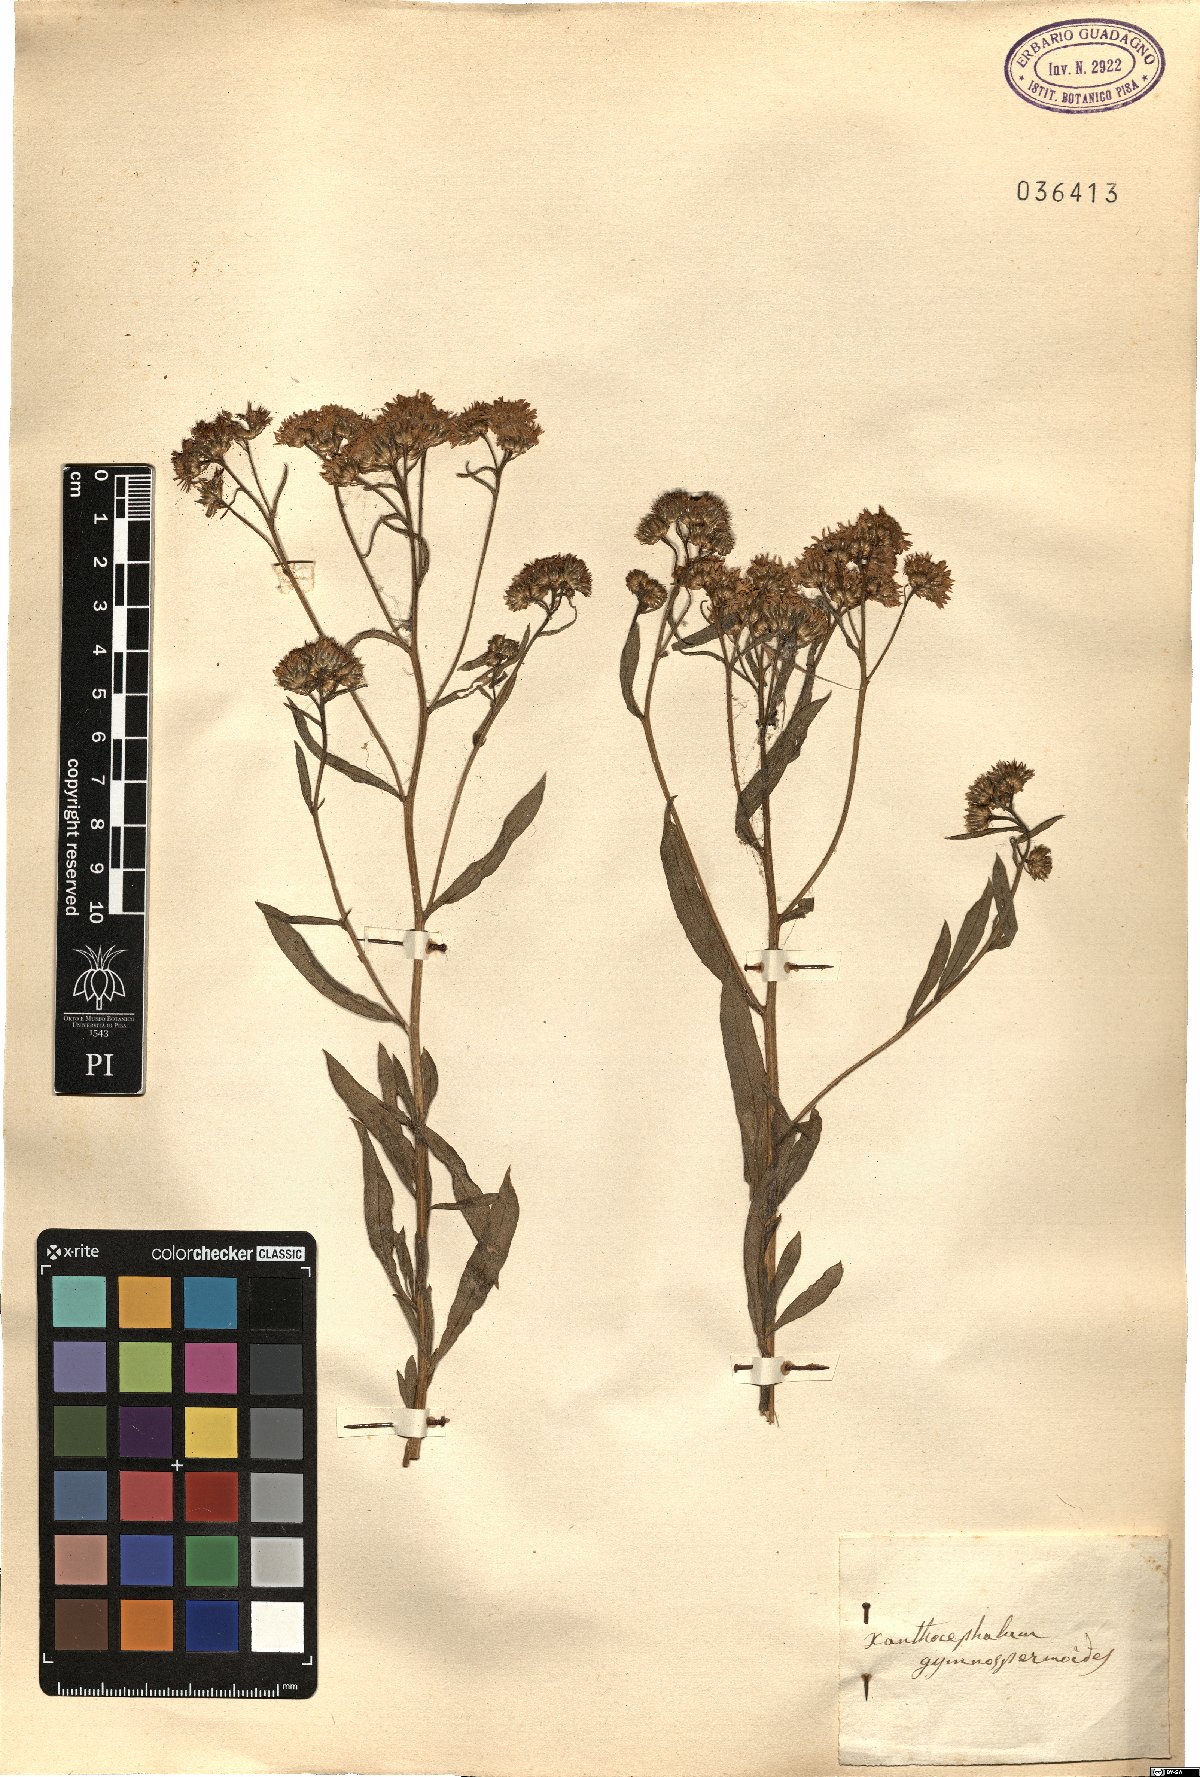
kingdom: Plantae
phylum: Tracheophyta
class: Magnoliopsida
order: Asterales
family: Asteraceae
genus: Xanthocephalum
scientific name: Xanthocephalum gymnospermoides
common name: San pedro matchweed
